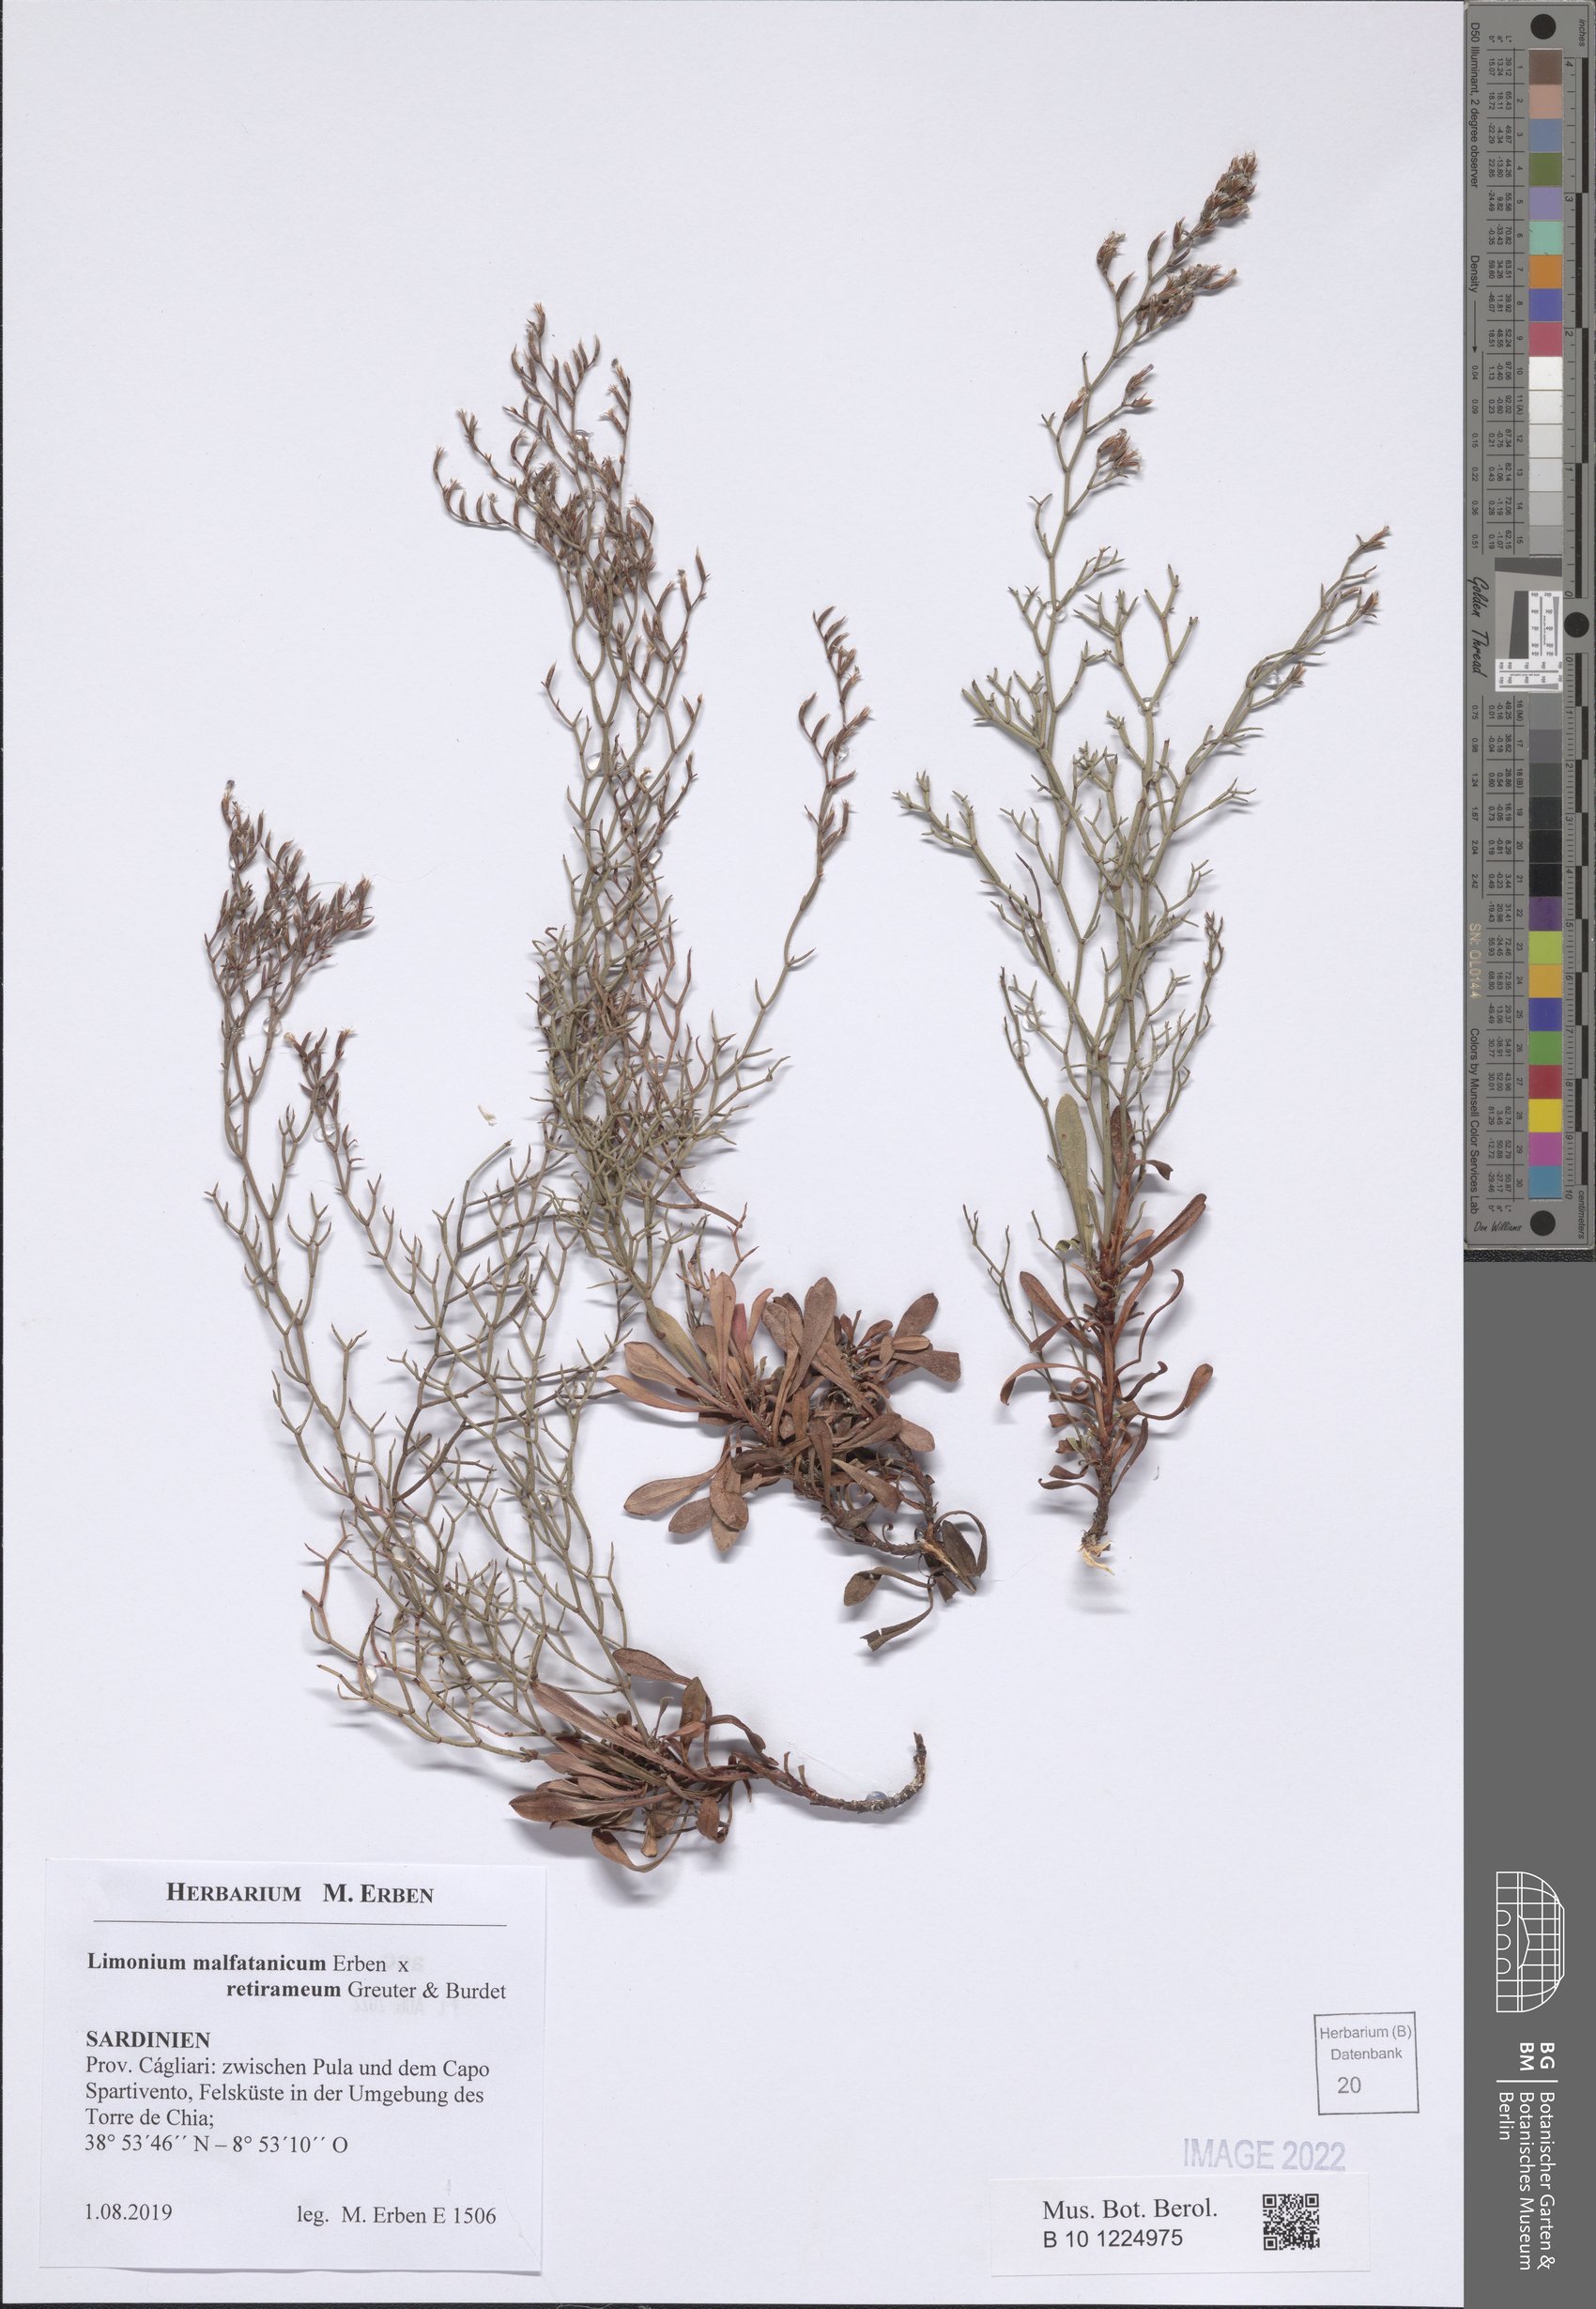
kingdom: Plantae
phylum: Tracheophyta
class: Magnoliopsida
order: Caryophyllales
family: Plumbaginaceae
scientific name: Plumbaginaceae
